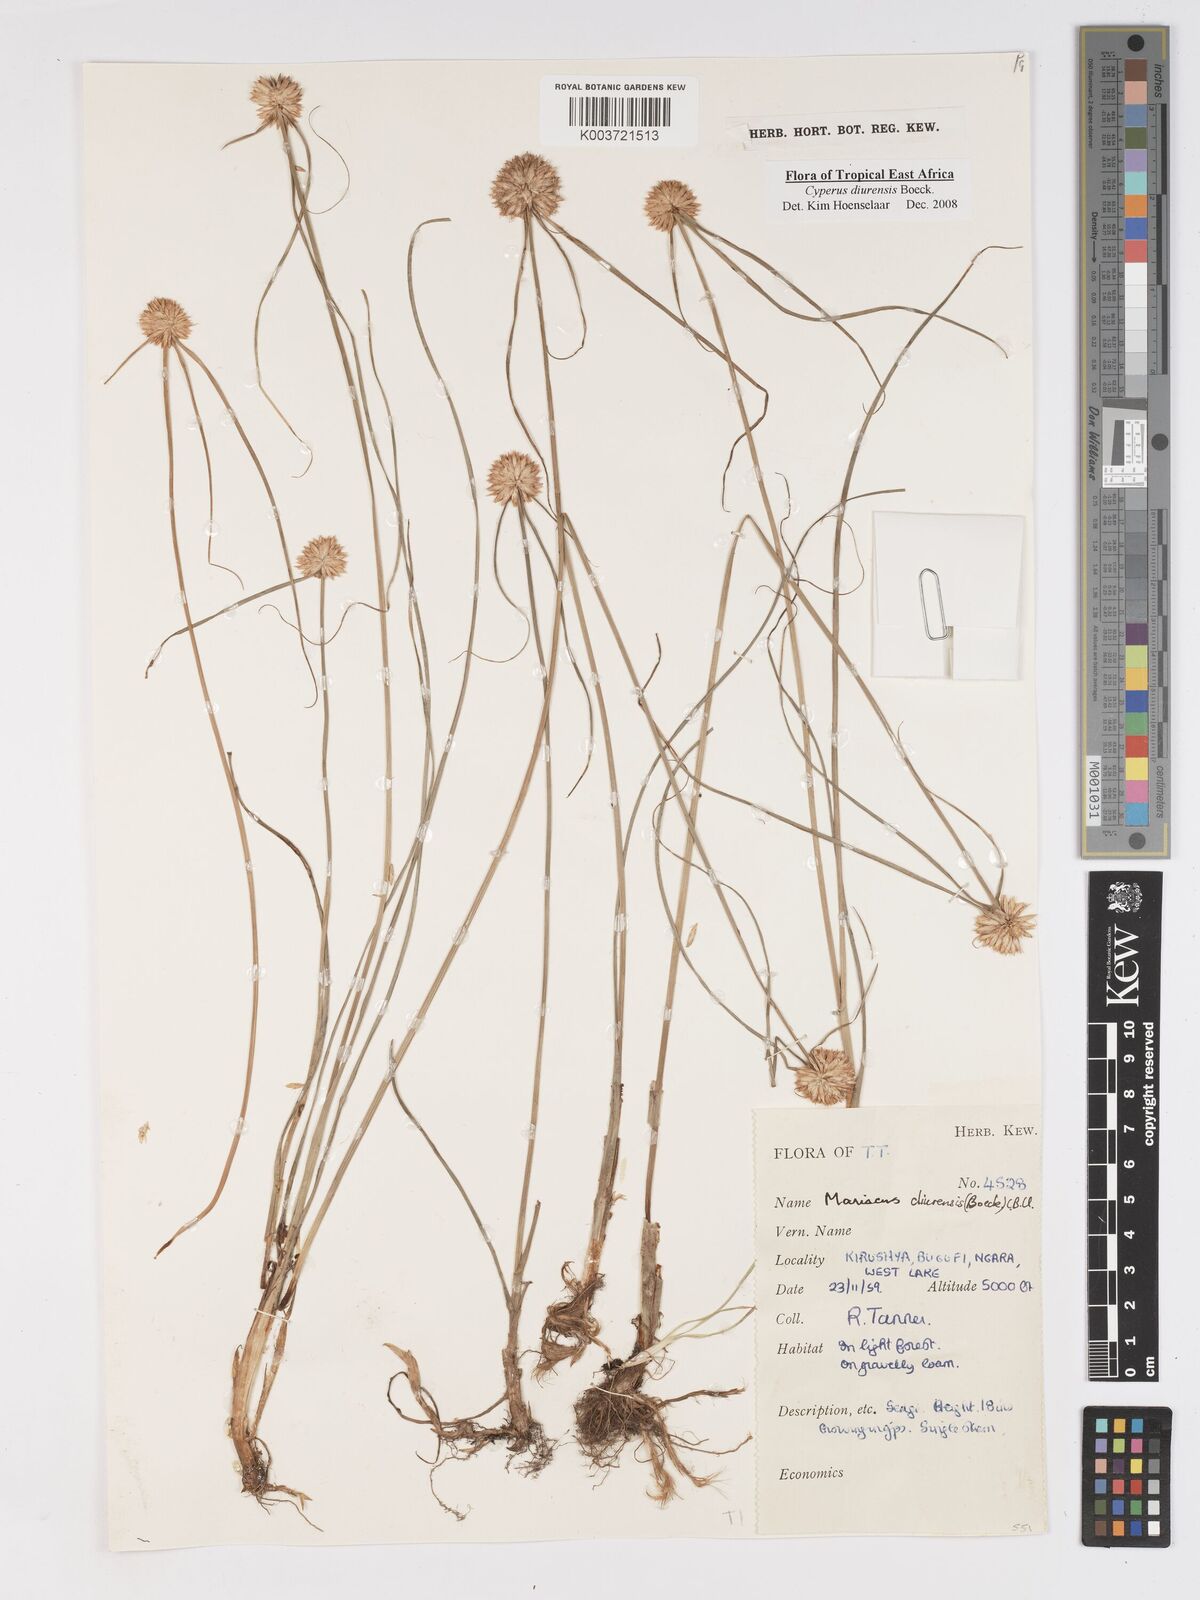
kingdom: Plantae
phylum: Tracheophyta
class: Liliopsida
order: Poales
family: Cyperaceae
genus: Cyperus
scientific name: Cyperus diurensis
